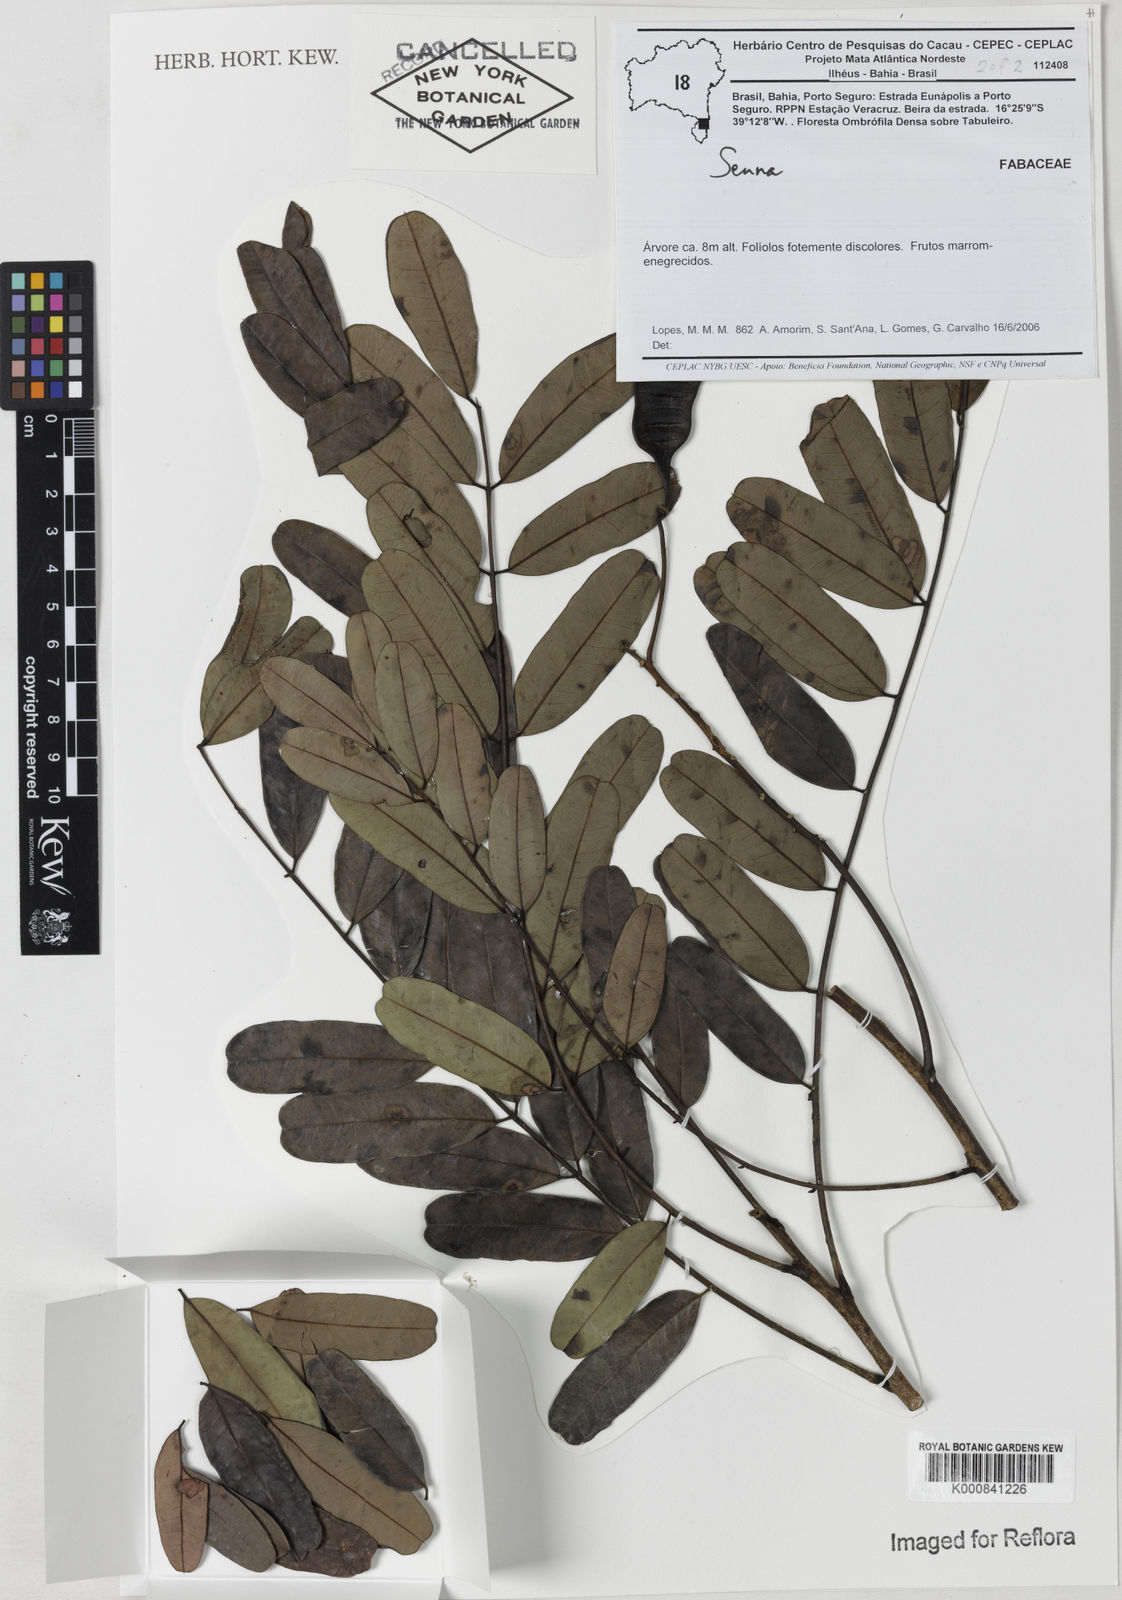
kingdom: Plantae
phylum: Tracheophyta
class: Magnoliopsida
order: Fabales
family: Fabaceae
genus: Senna
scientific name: Senna formosa
